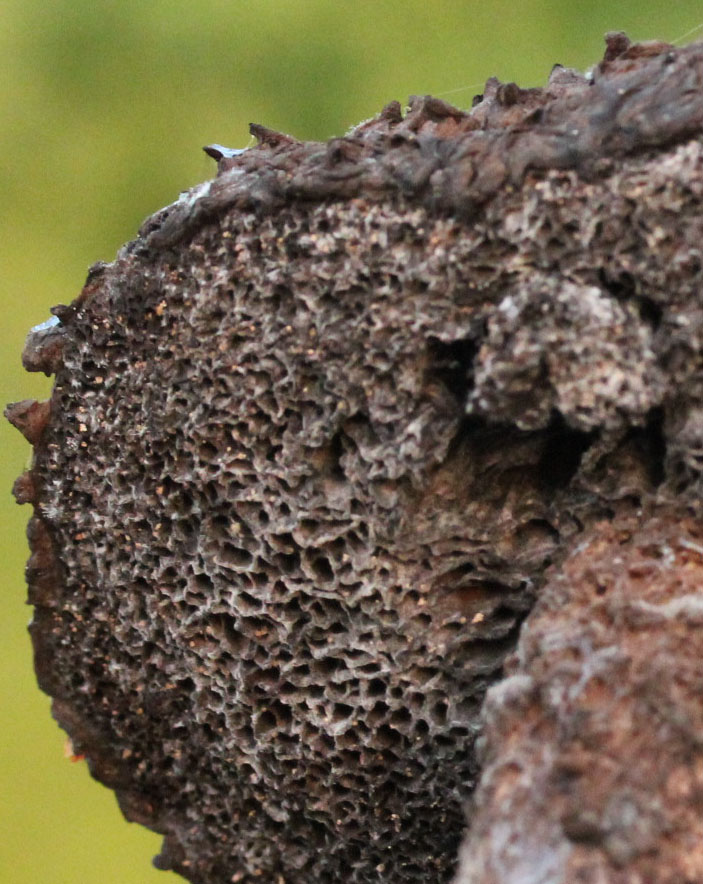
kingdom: Fungi
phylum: Basidiomycota
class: Agaricomycetes
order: Boletales
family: Boletaceae
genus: Strobilomyces
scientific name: Strobilomyces strobilaceus
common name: koglerørhat
